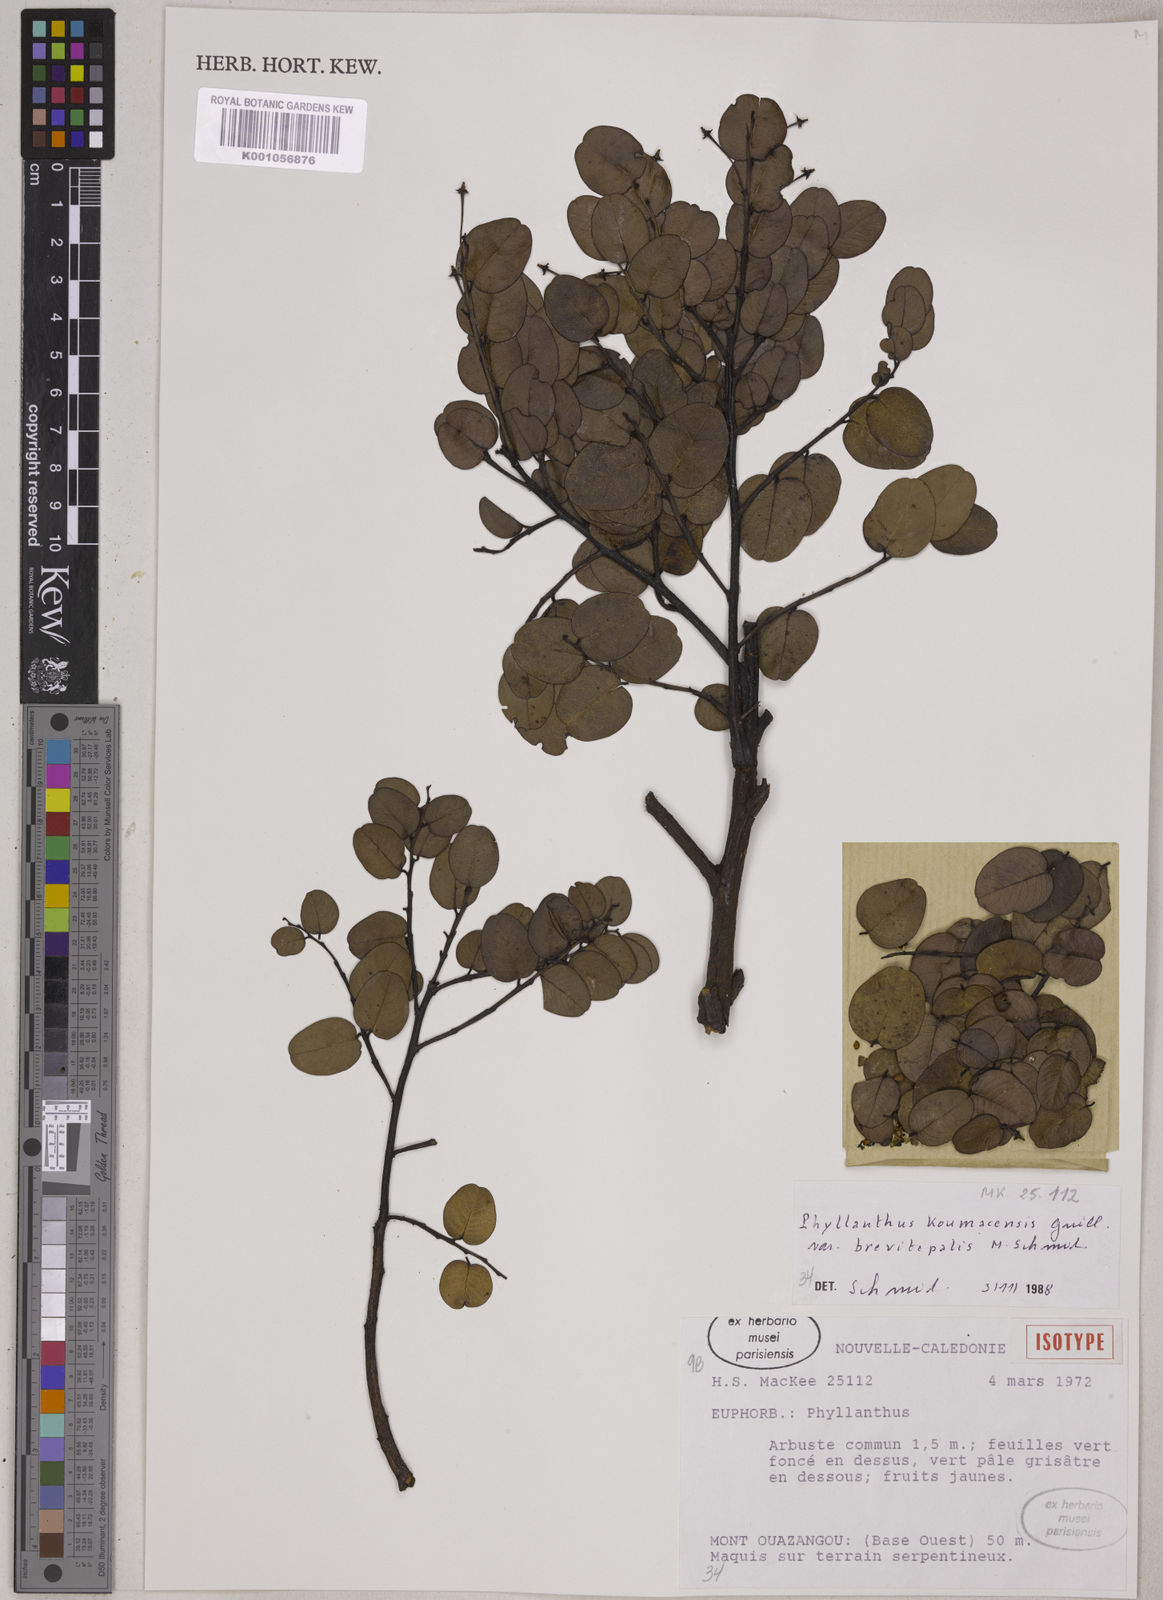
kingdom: Plantae
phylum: Tracheophyta
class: Magnoliopsida
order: Malpighiales
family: Phyllanthaceae
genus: Phyllanthus
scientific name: Phyllanthus koumacensis
